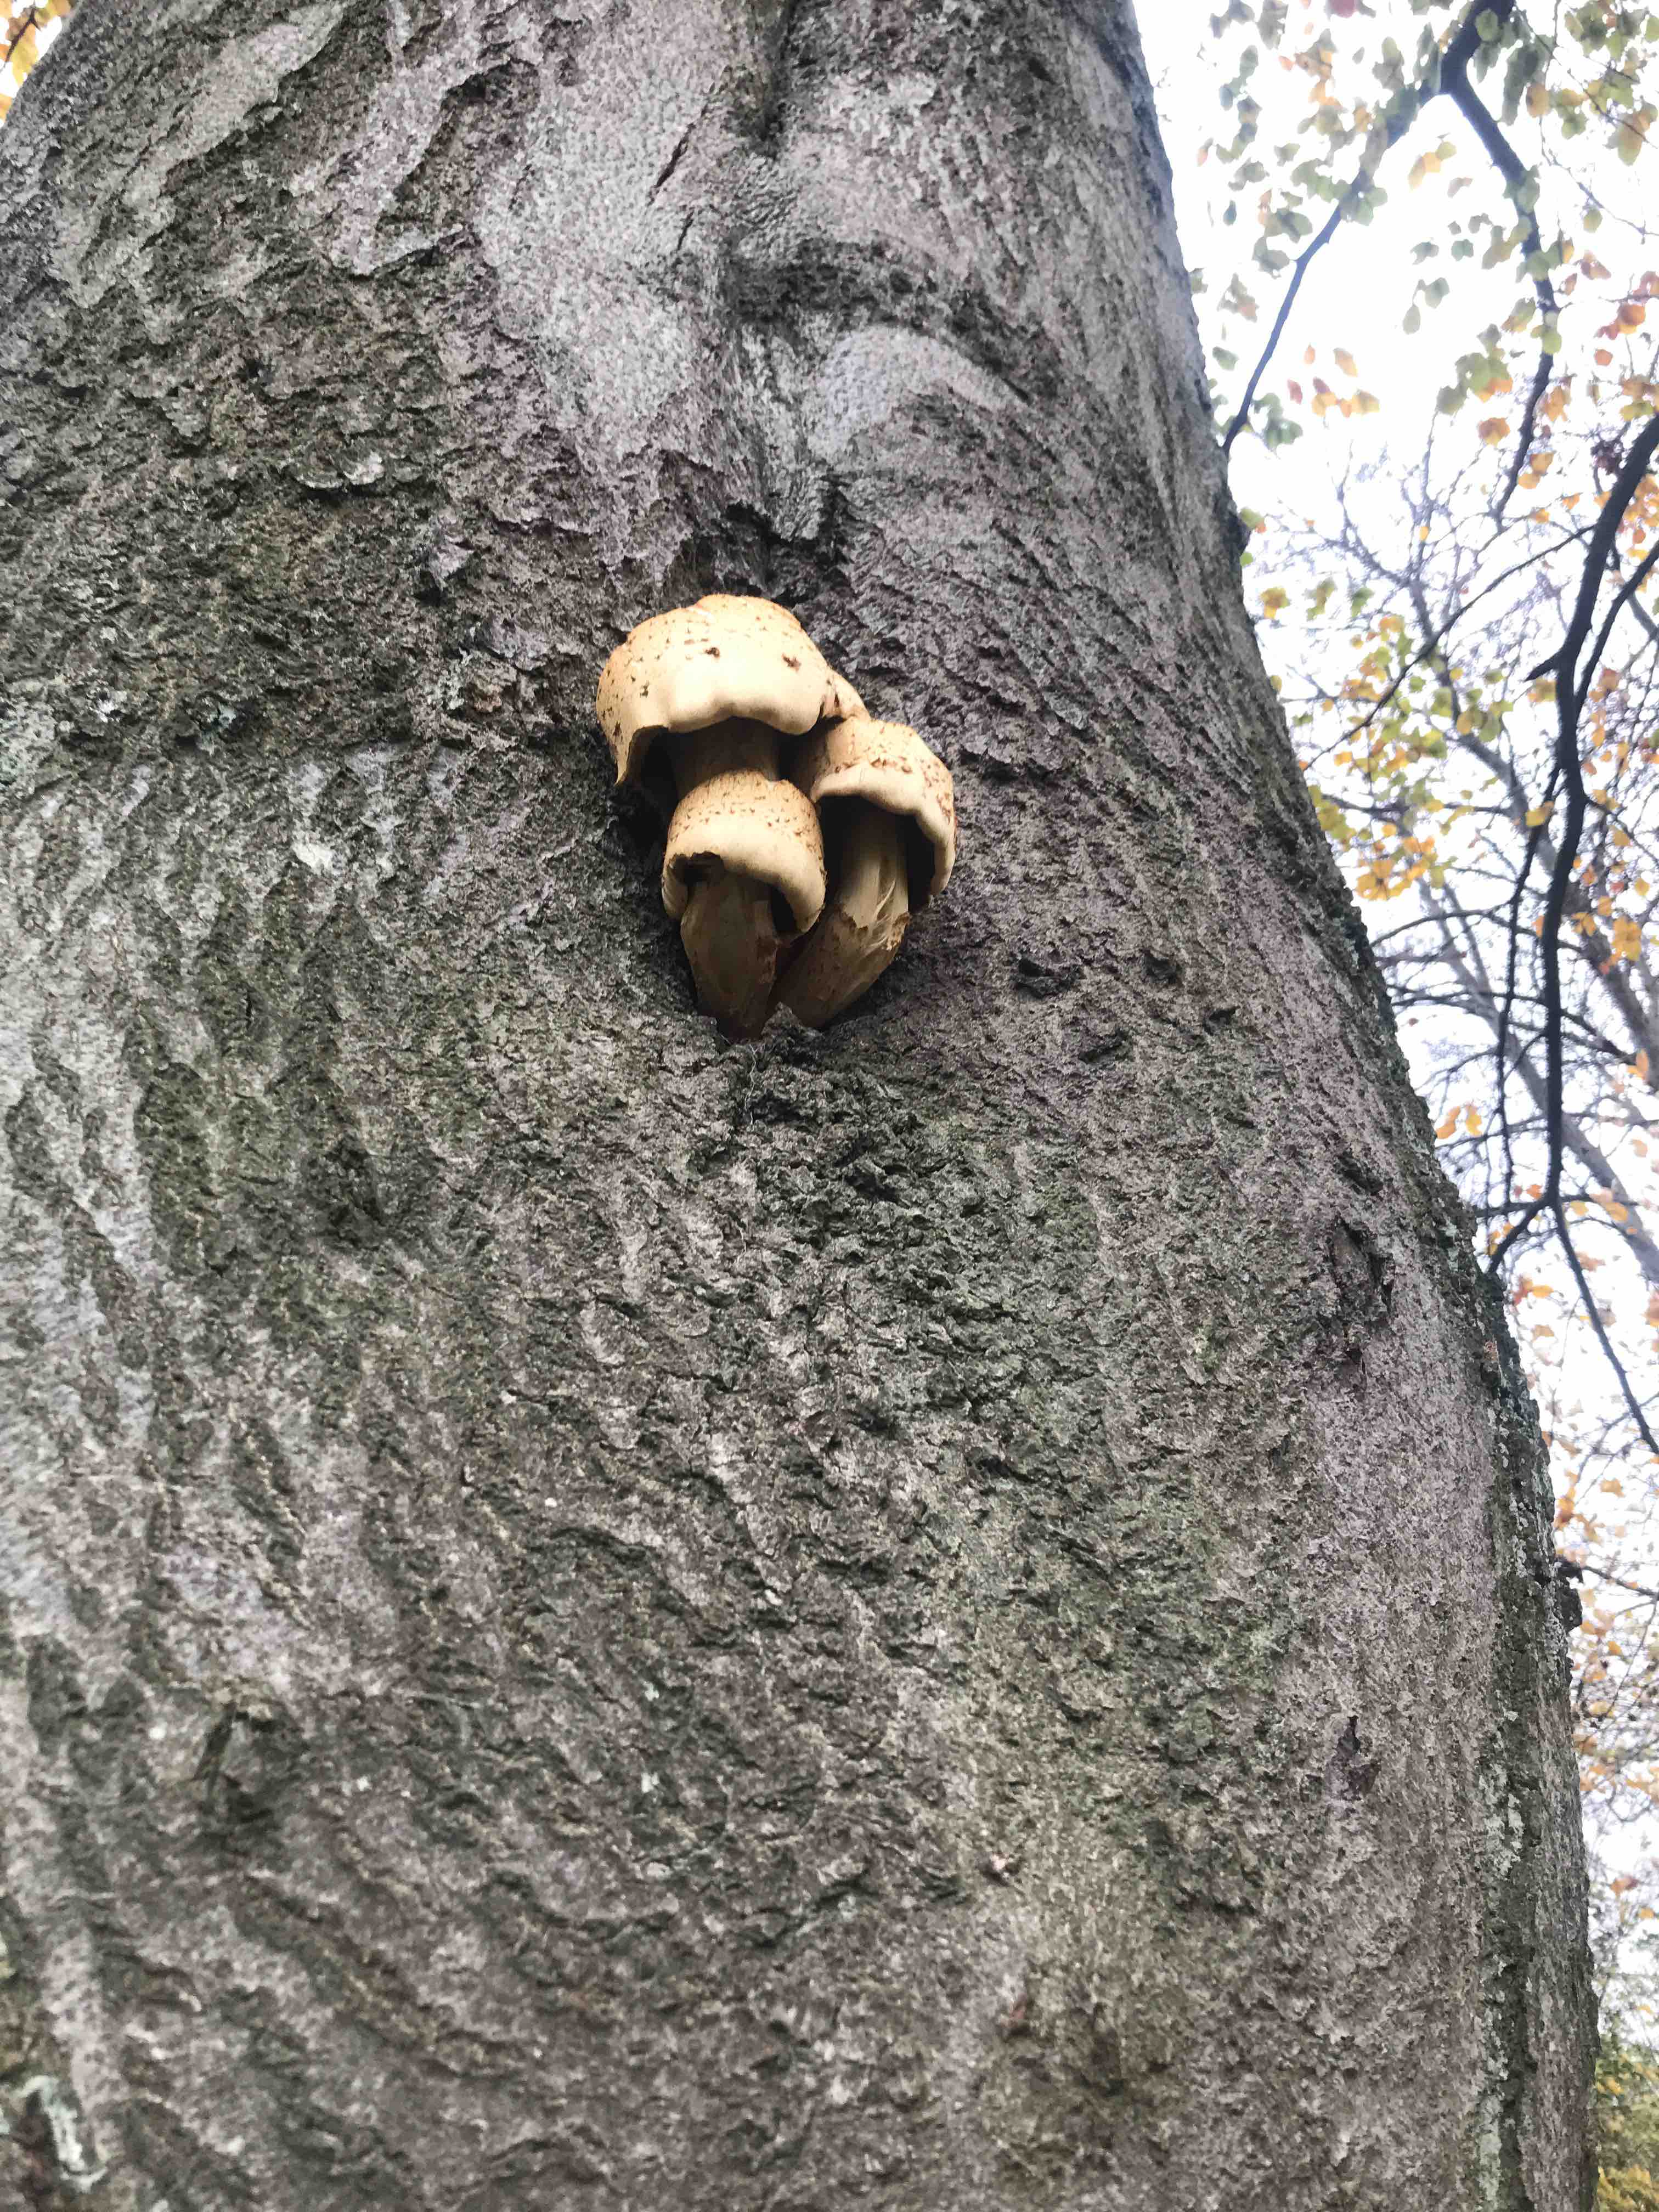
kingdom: Fungi
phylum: Basidiomycota
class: Agaricomycetes
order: Agaricales
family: Strophariaceae
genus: Pholiota
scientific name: Pholiota adiposa
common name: højtsiddende skælhat
